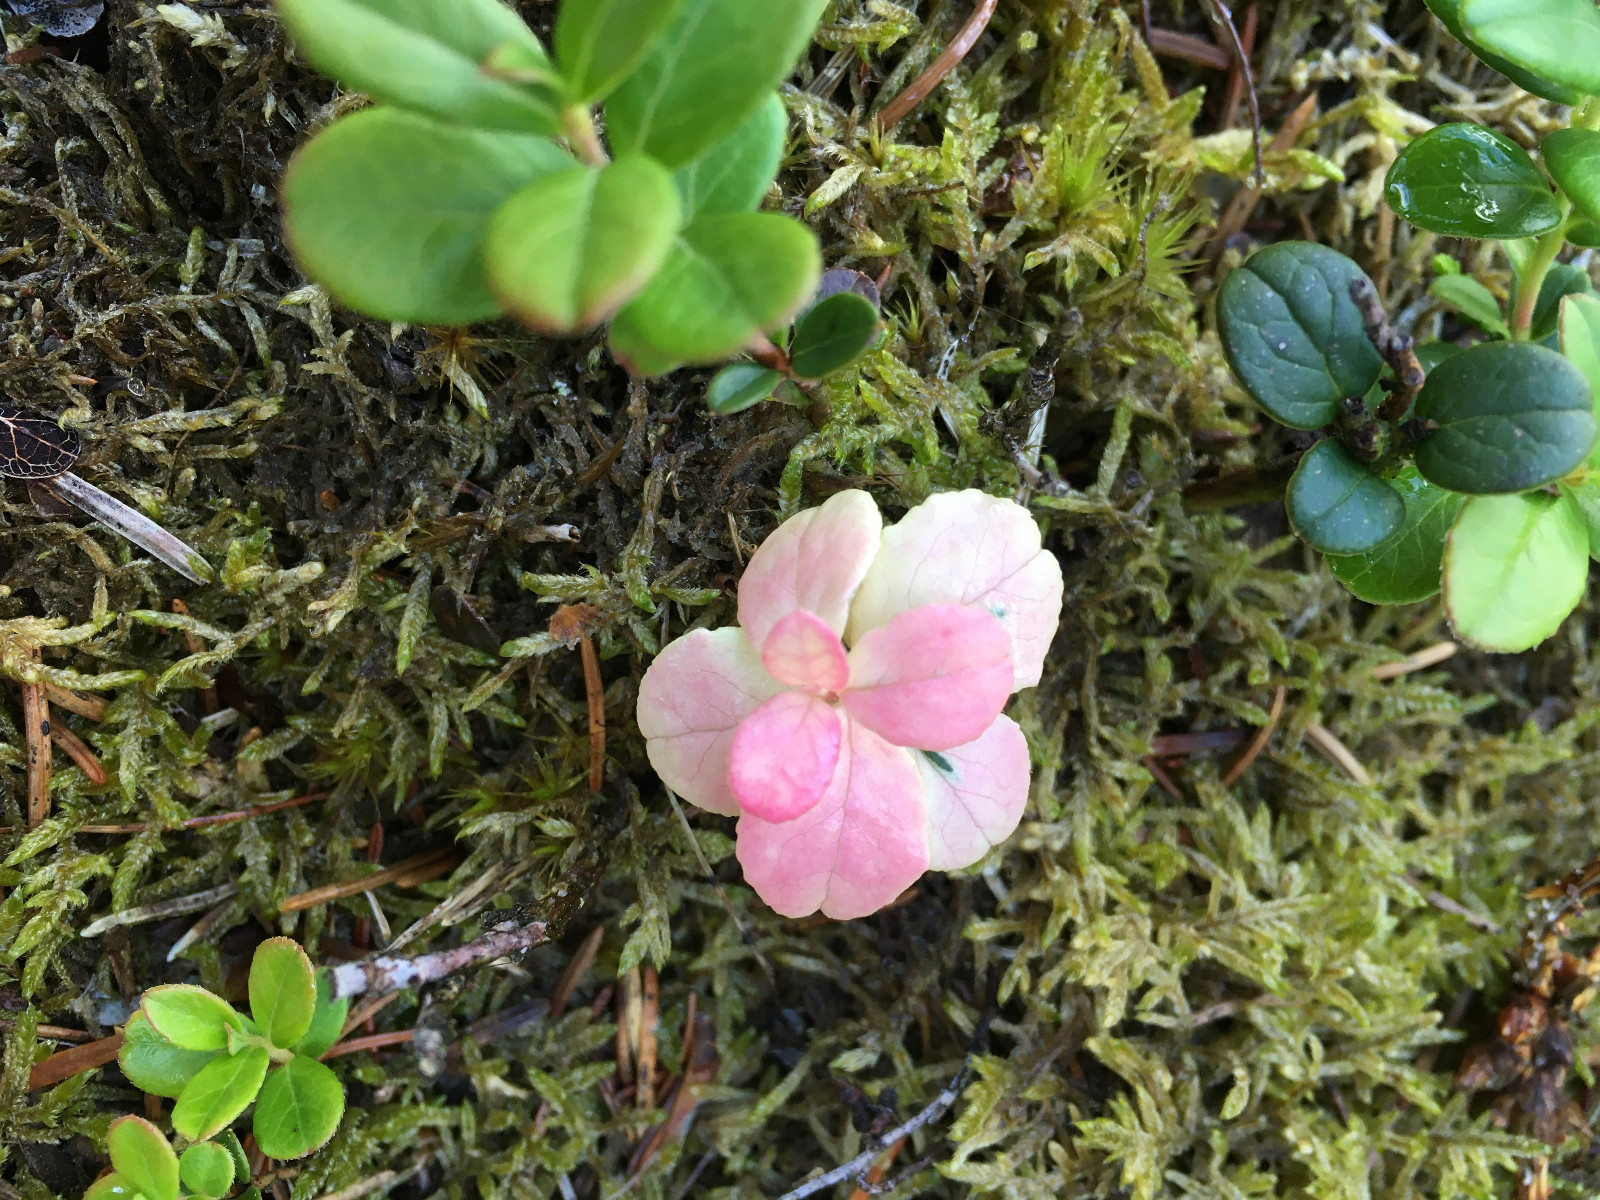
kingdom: Fungi
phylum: Basidiomycota
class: Exobasidiomycetes
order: Exobasidiales
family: Exobasidiaceae
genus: Exobasidium
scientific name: Exobasidium vaccinii
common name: tyttebærblad-bøllesvamp
